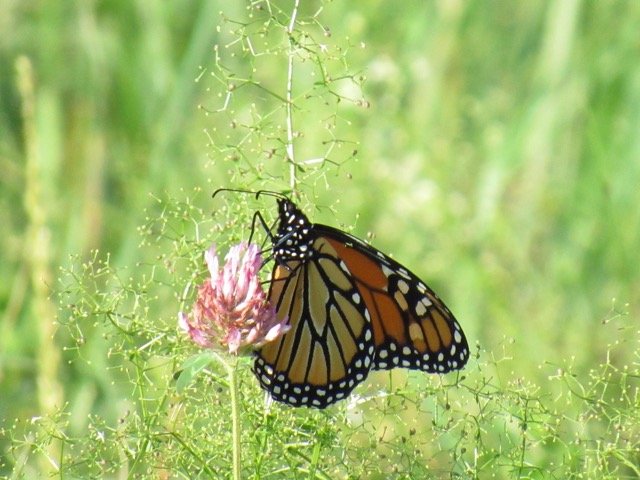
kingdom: Animalia
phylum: Arthropoda
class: Insecta
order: Lepidoptera
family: Nymphalidae
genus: Danaus
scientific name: Danaus plexippus
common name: Monarch
